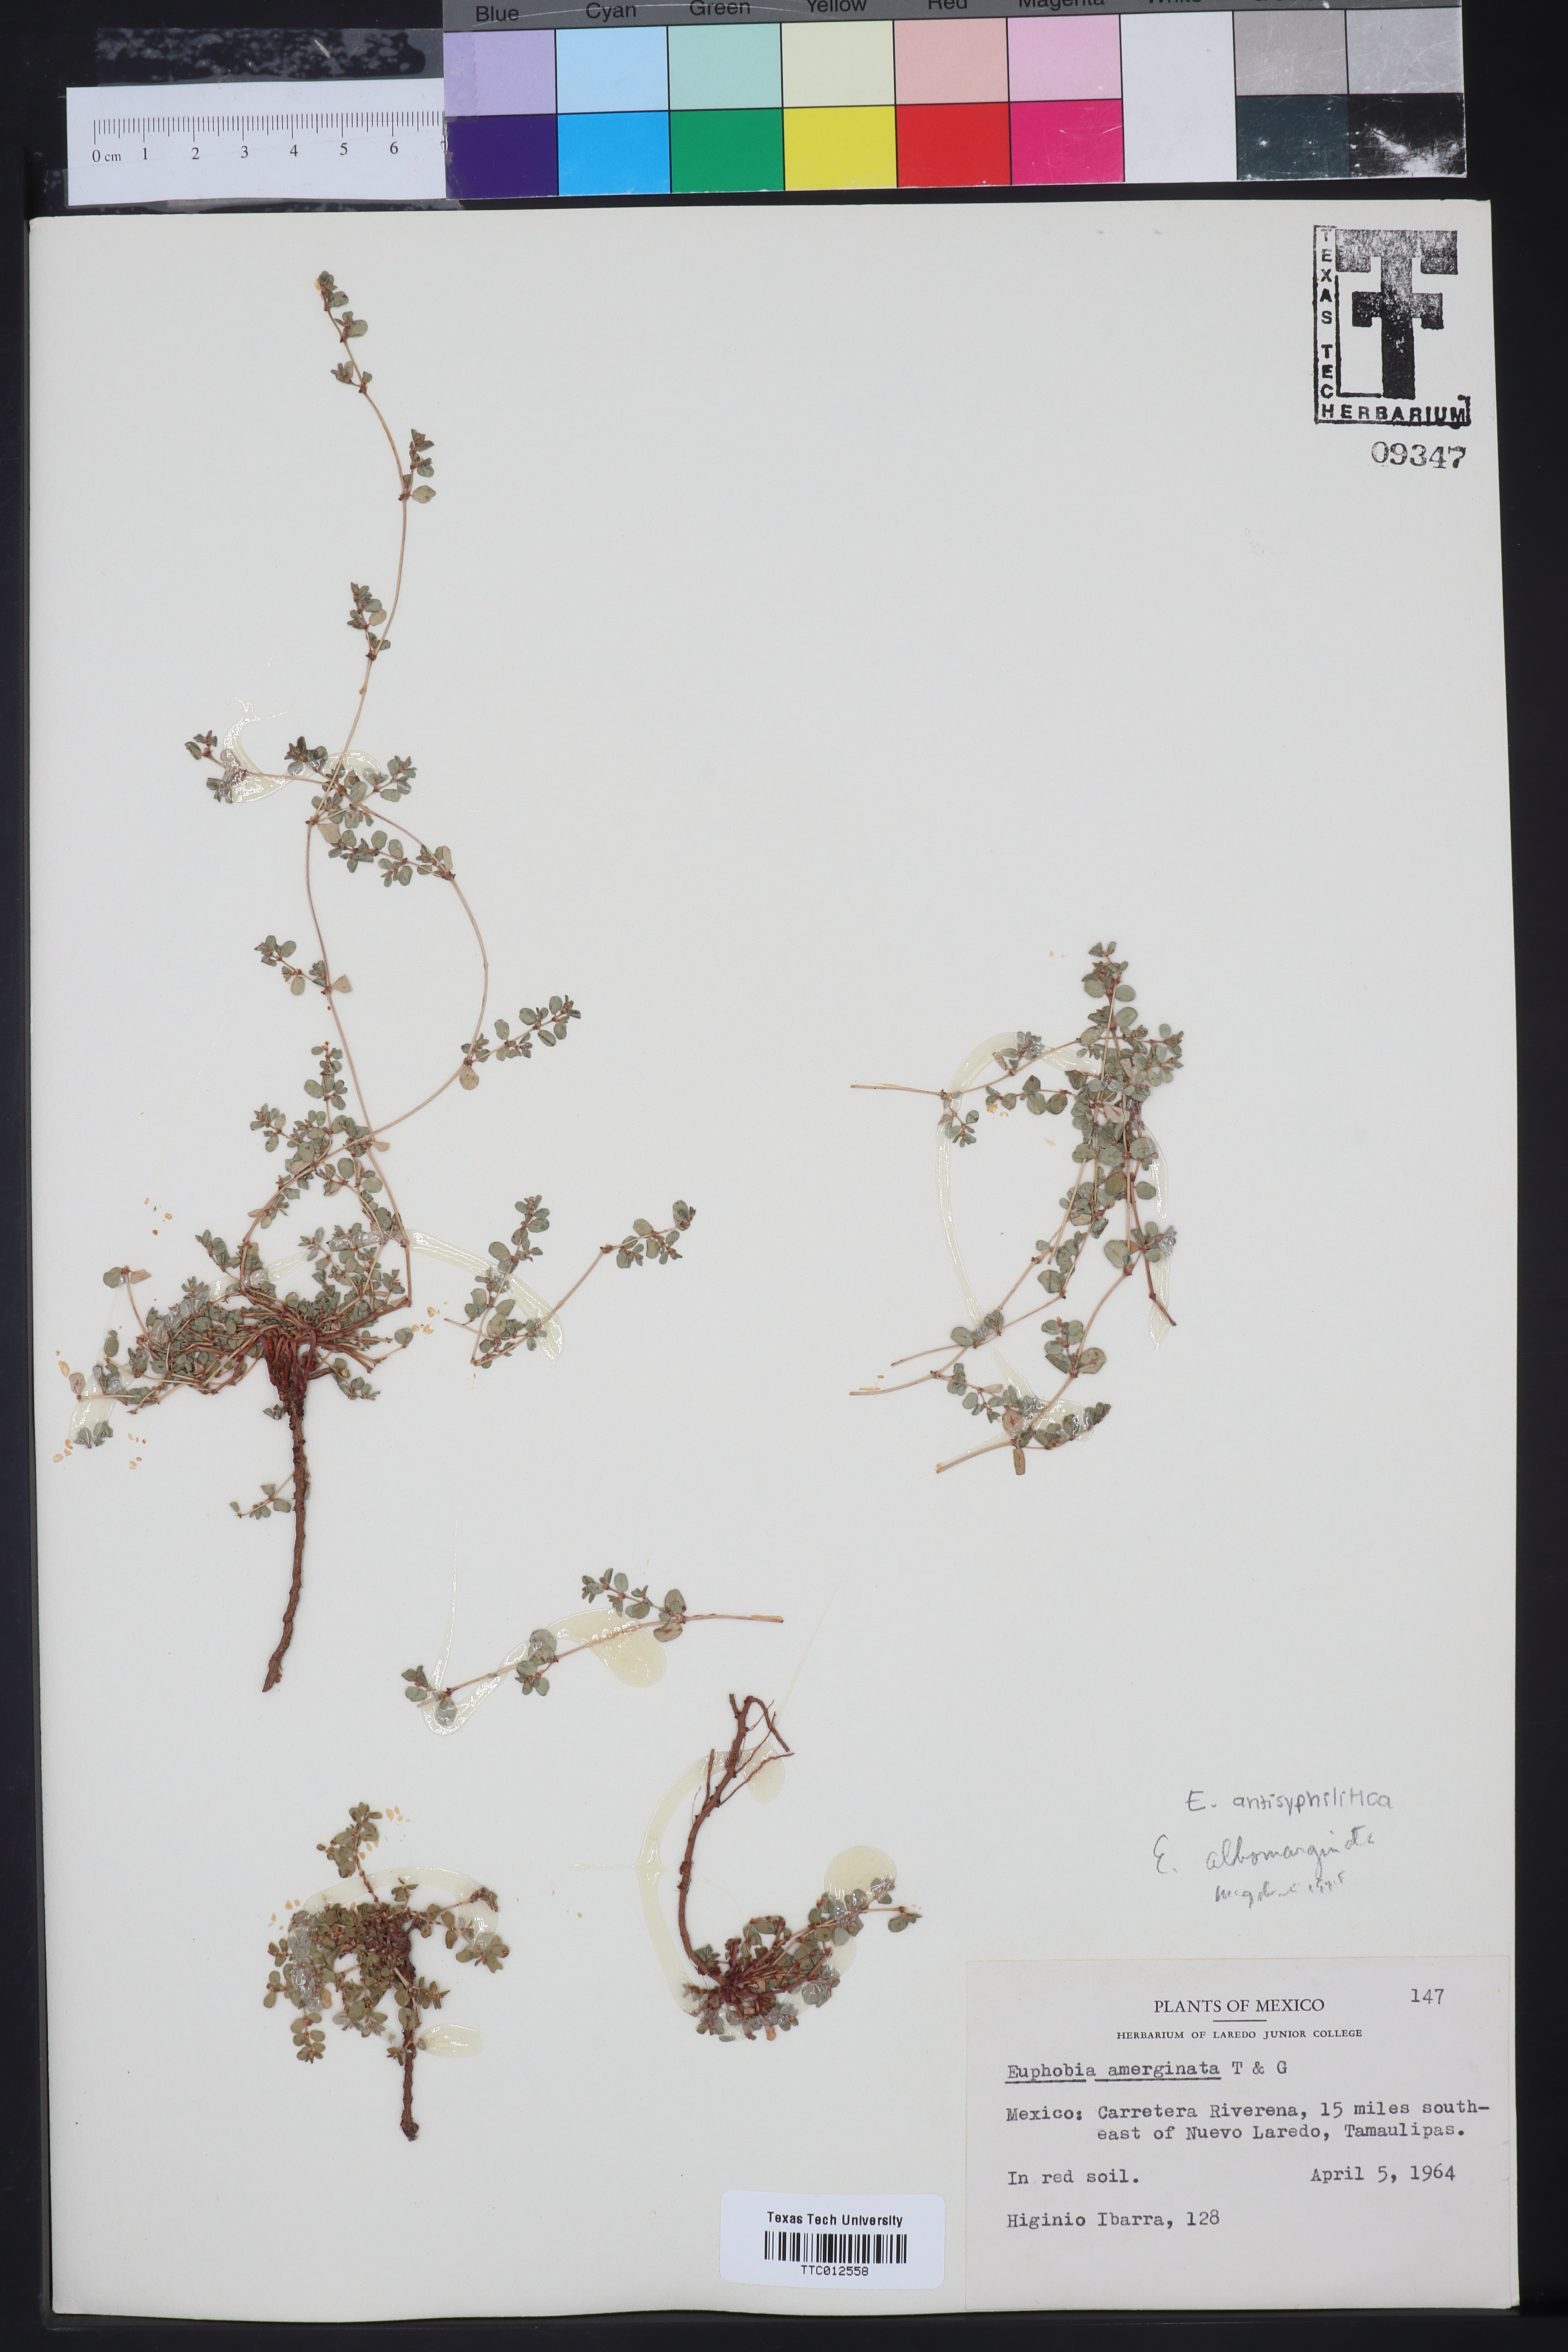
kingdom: Plantae
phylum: Tracheophyta
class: Magnoliopsida
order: Malpighiales
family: Euphorbiaceae
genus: Euphorbia
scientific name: Euphorbia
